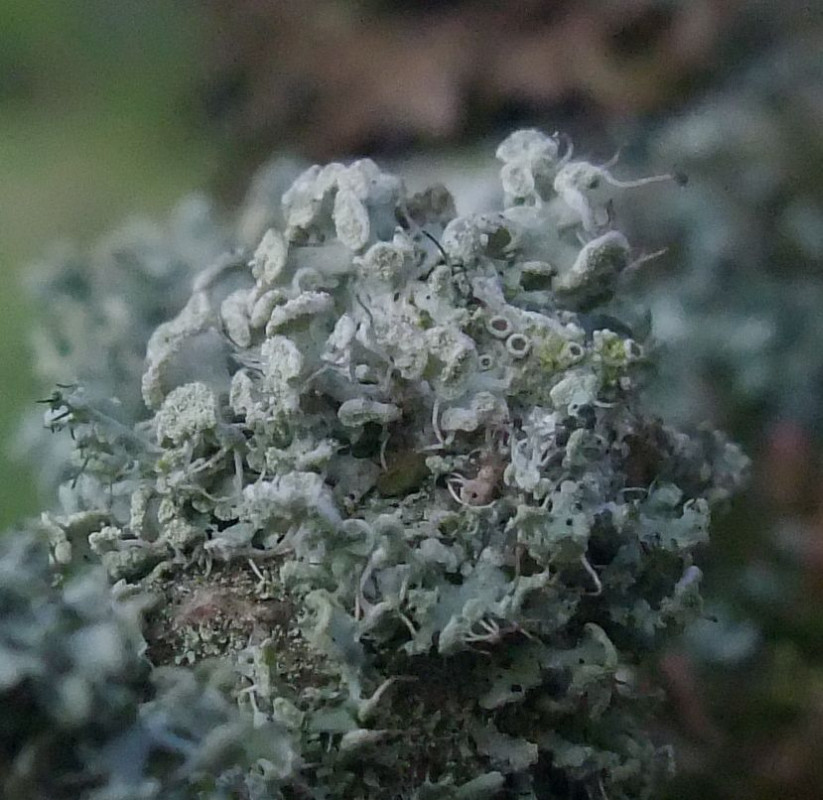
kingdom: Fungi
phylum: Ascomycota
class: Lecanoromycetes
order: Caliciales
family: Physciaceae
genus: Physcia
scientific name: Physcia tenella
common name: spæd rosetlav
